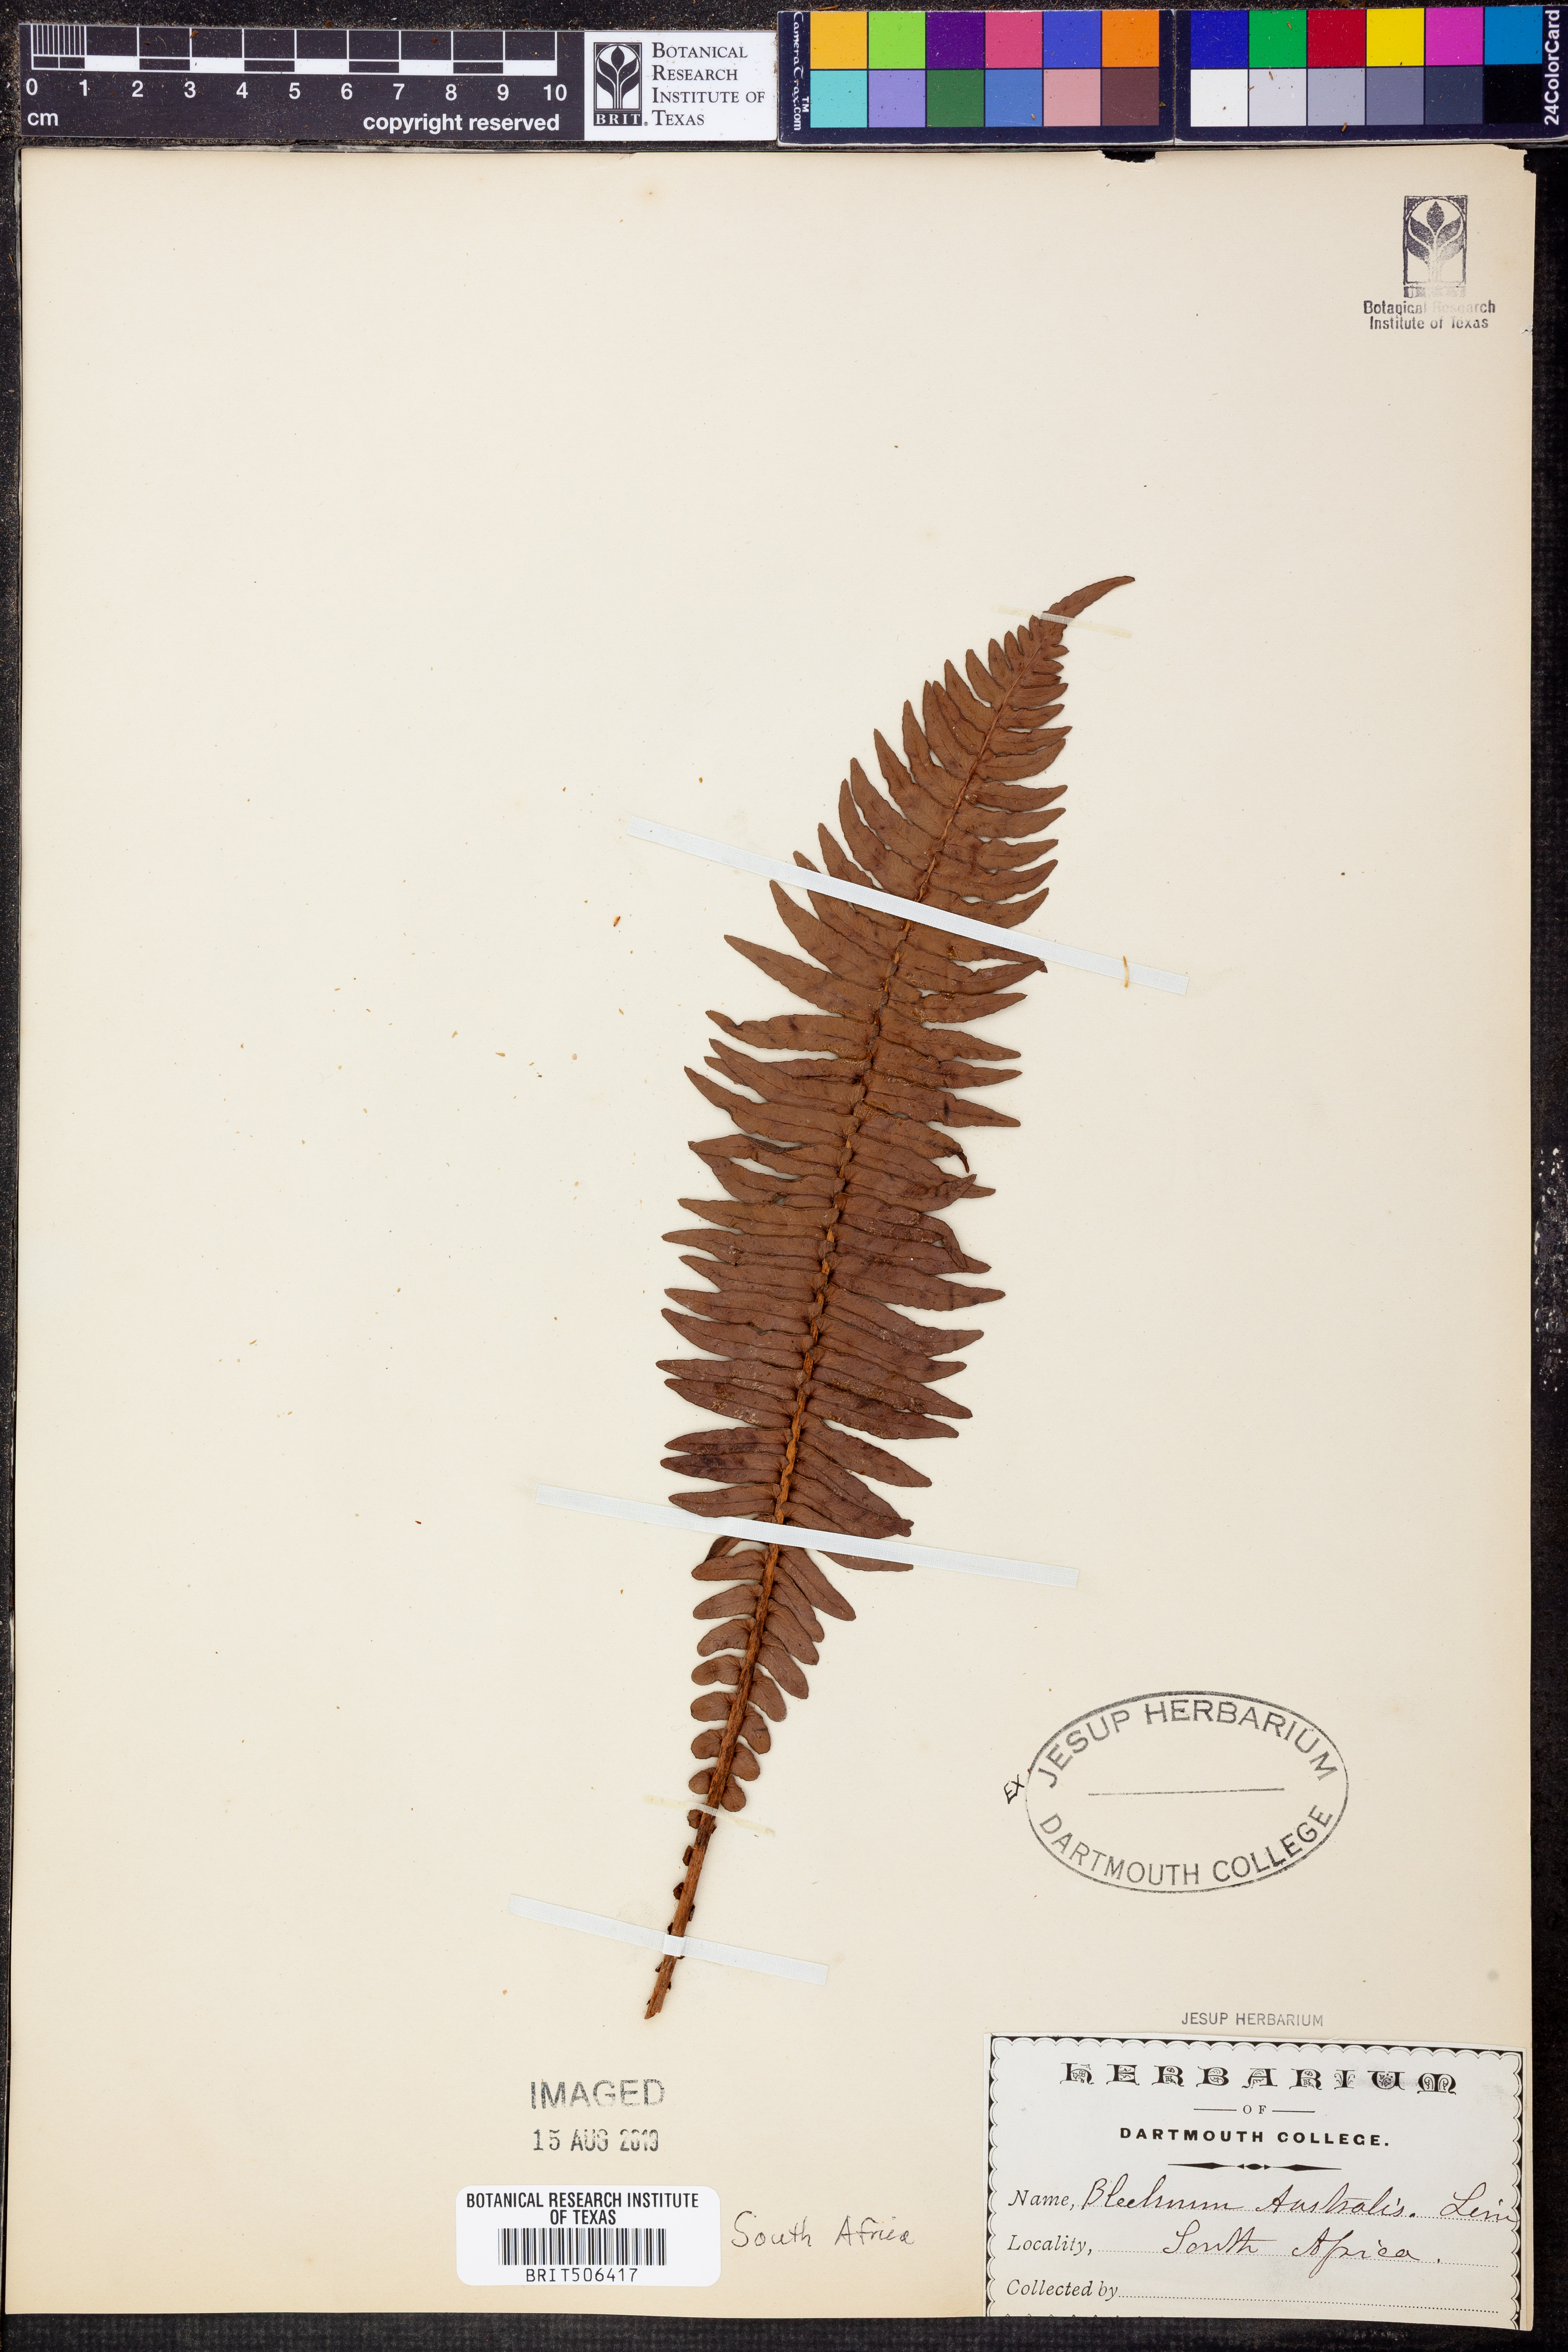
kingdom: Plantae
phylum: Tracheophyta
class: Polypodiopsida
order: Polypodiales
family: Blechnaceae
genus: Blechnum
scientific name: Blechnum australe
